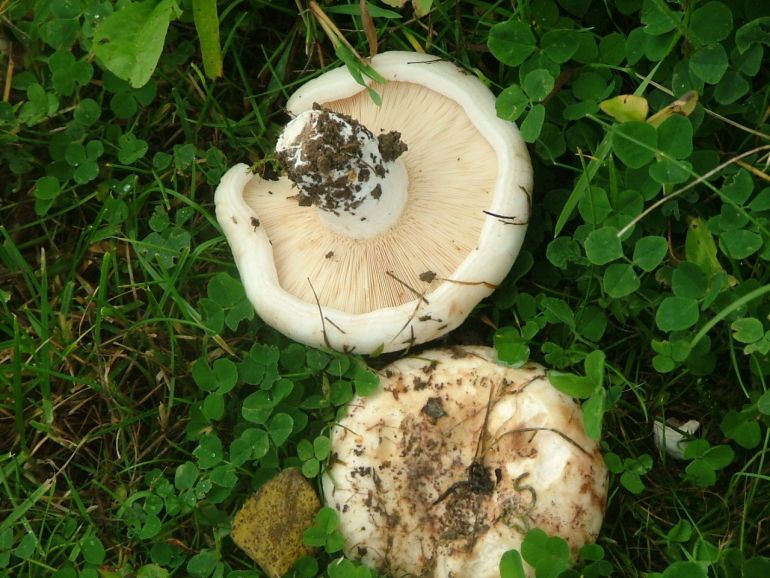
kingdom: Fungi
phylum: Basidiomycota
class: Agaricomycetes
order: Russulales
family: Russulaceae
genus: Lactarius
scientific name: Lactarius controversus
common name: rosabladet mælkehat
